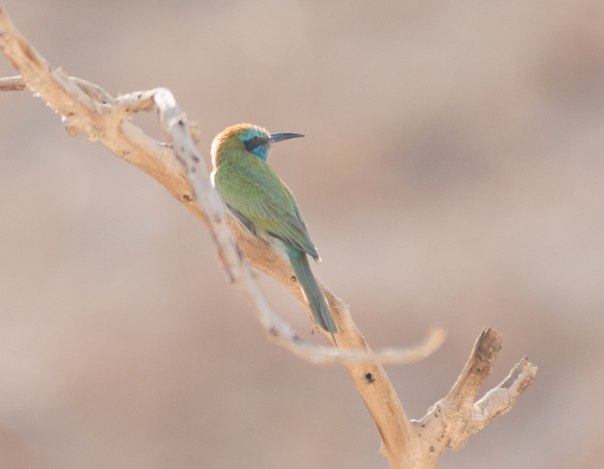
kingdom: Animalia
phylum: Chordata
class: Aves
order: Coraciiformes
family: Meropidae
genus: Merops
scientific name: Merops orientalis
